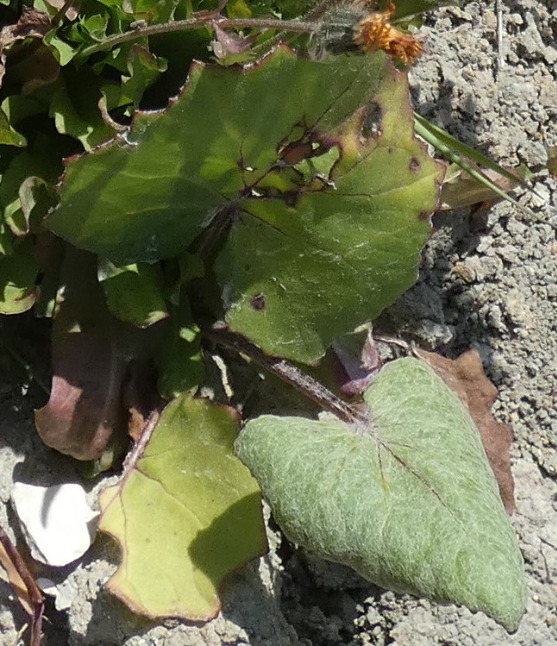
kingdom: Plantae
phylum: Tracheophyta
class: Magnoliopsida
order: Asterales
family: Asteraceae
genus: Tussilago
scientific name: Tussilago farfara
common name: Følfod
